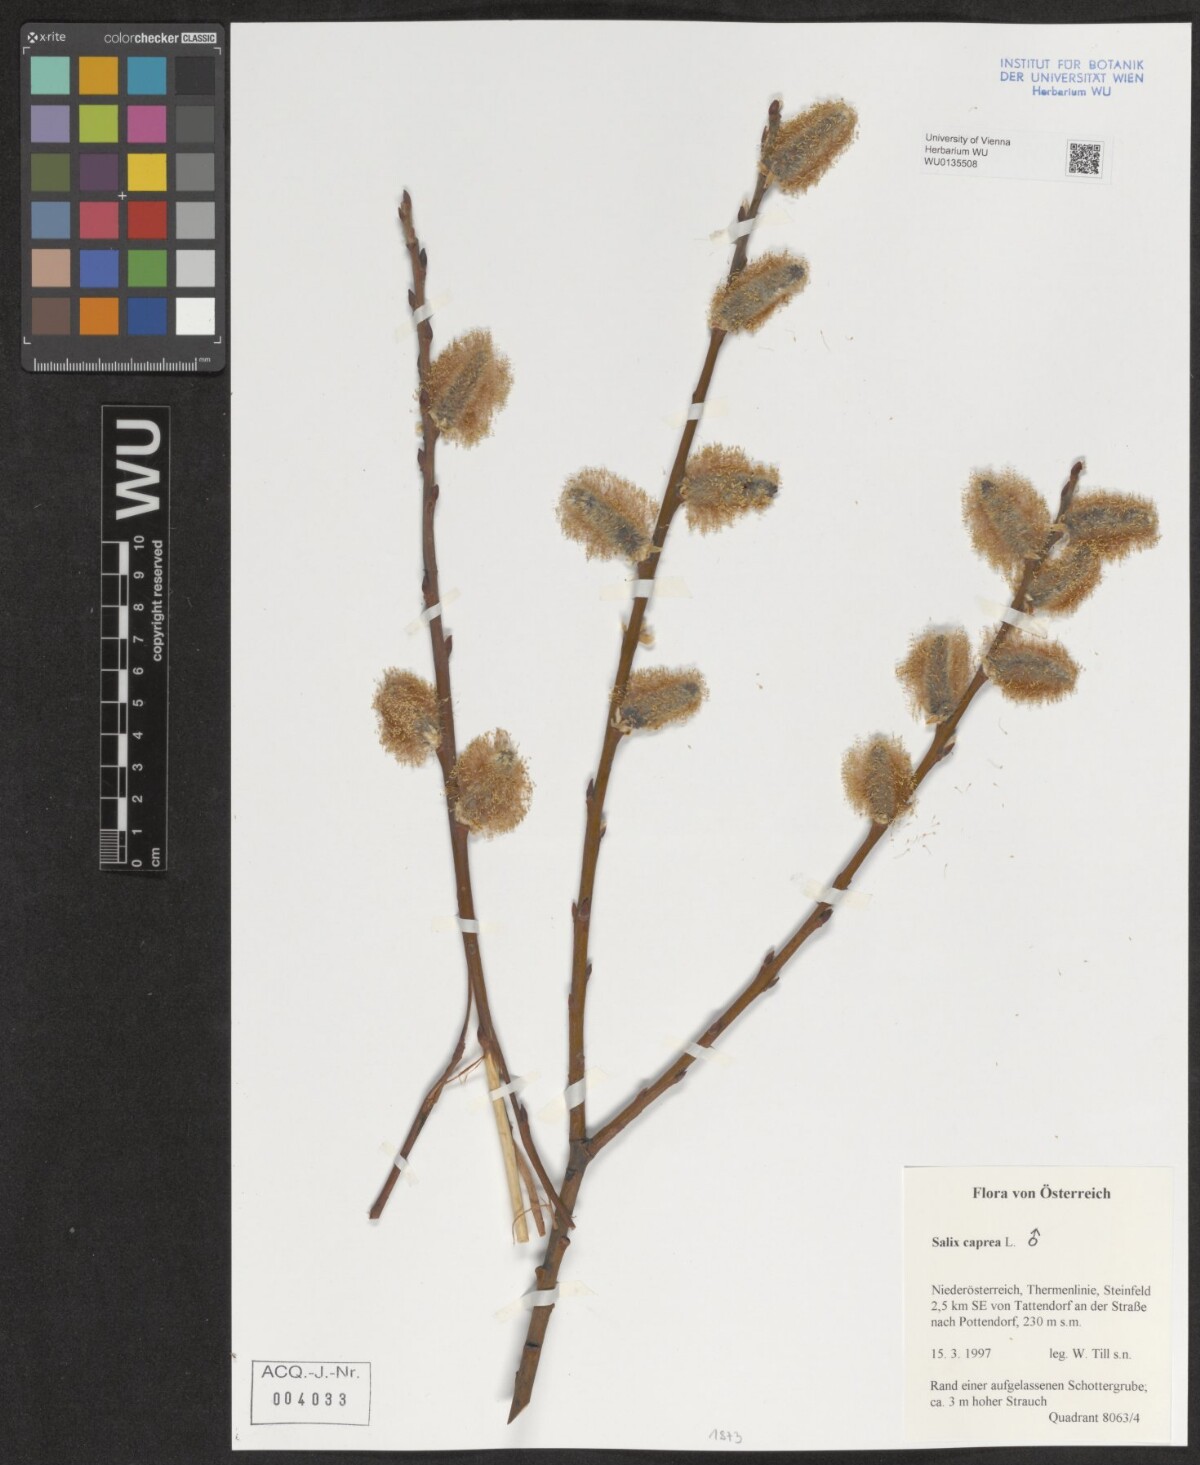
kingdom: Plantae
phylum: Tracheophyta
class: Magnoliopsida
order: Malpighiales
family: Salicaceae
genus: Salix
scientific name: Salix caprea
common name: Goat willow
